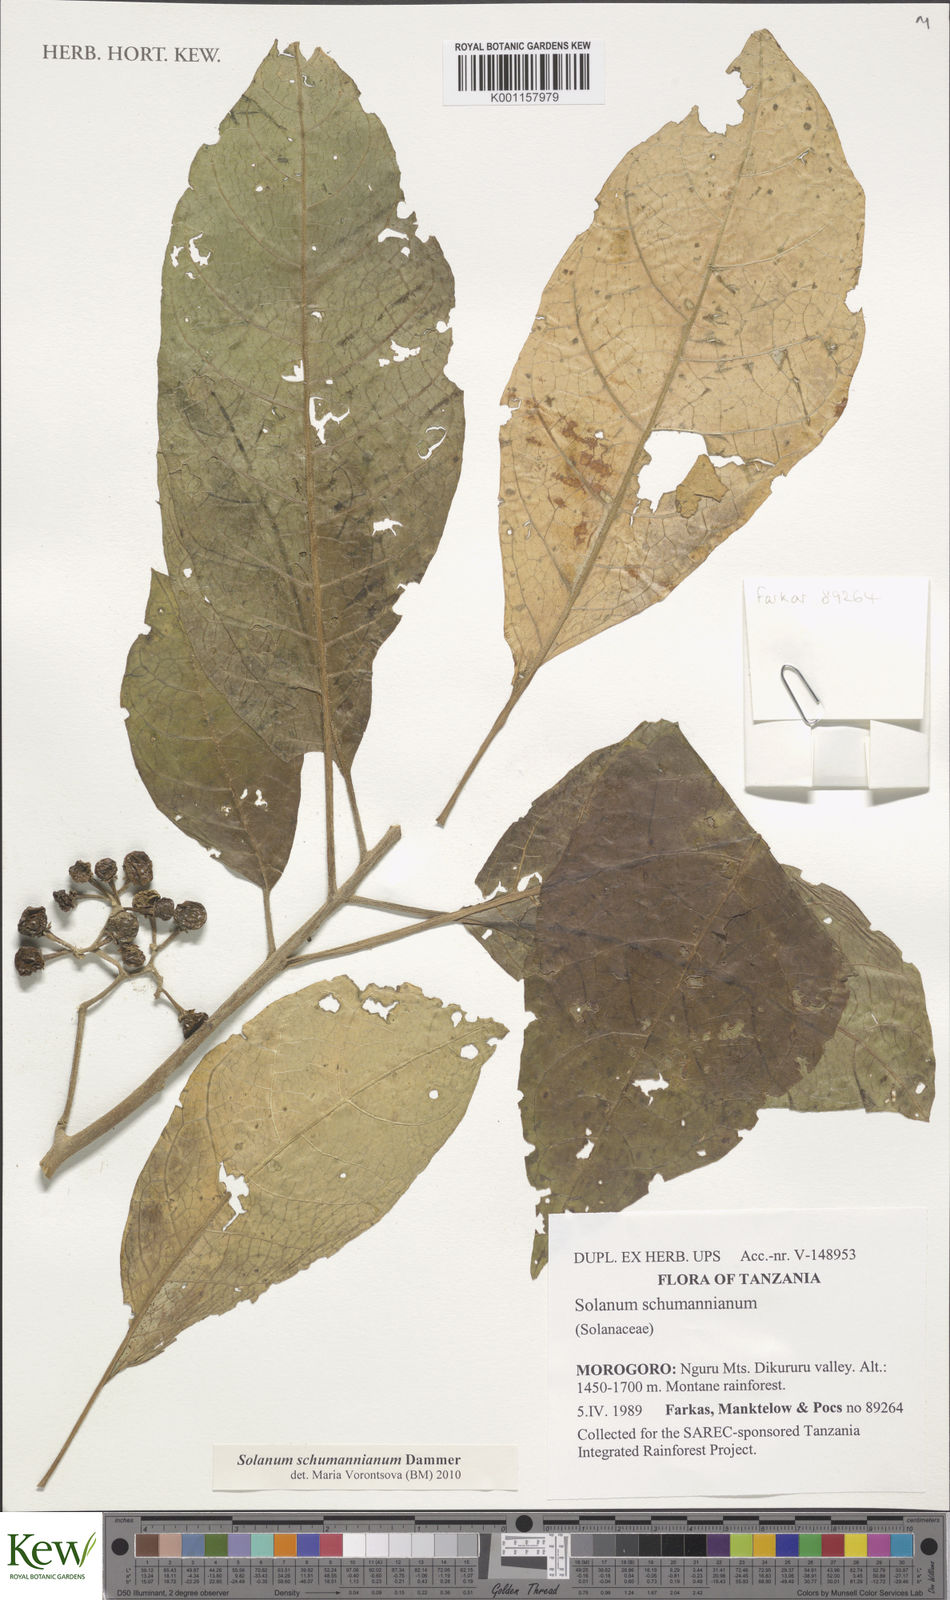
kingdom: Plantae
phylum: Tracheophyta
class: Magnoliopsida
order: Solanales
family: Solanaceae
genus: Solanum
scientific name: Solanum schumannianum
